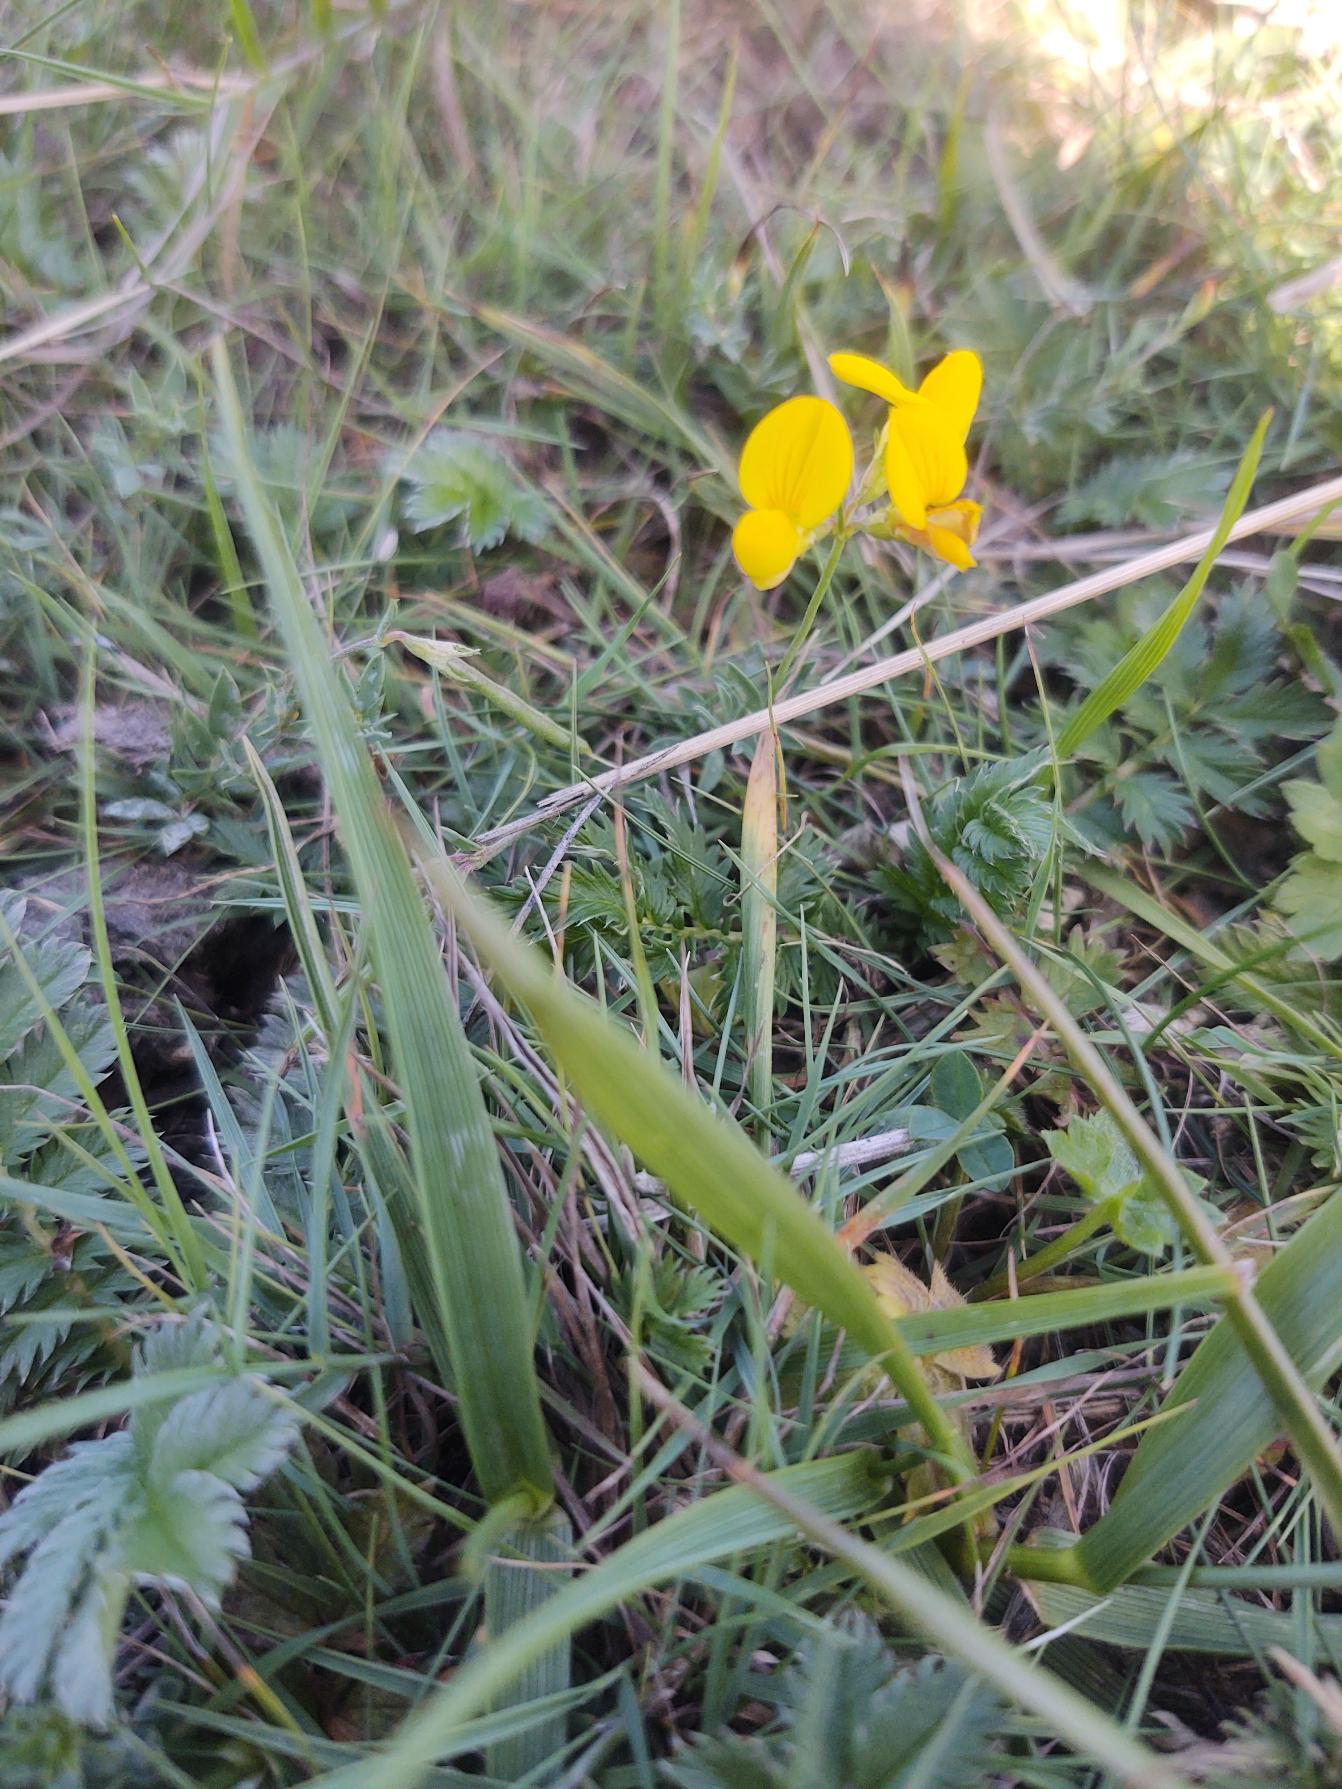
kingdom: Plantae
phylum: Tracheophyta
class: Magnoliopsida
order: Fabales
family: Fabaceae
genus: Lotus
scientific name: Lotus tenuis
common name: Smalbladet kællingetand
